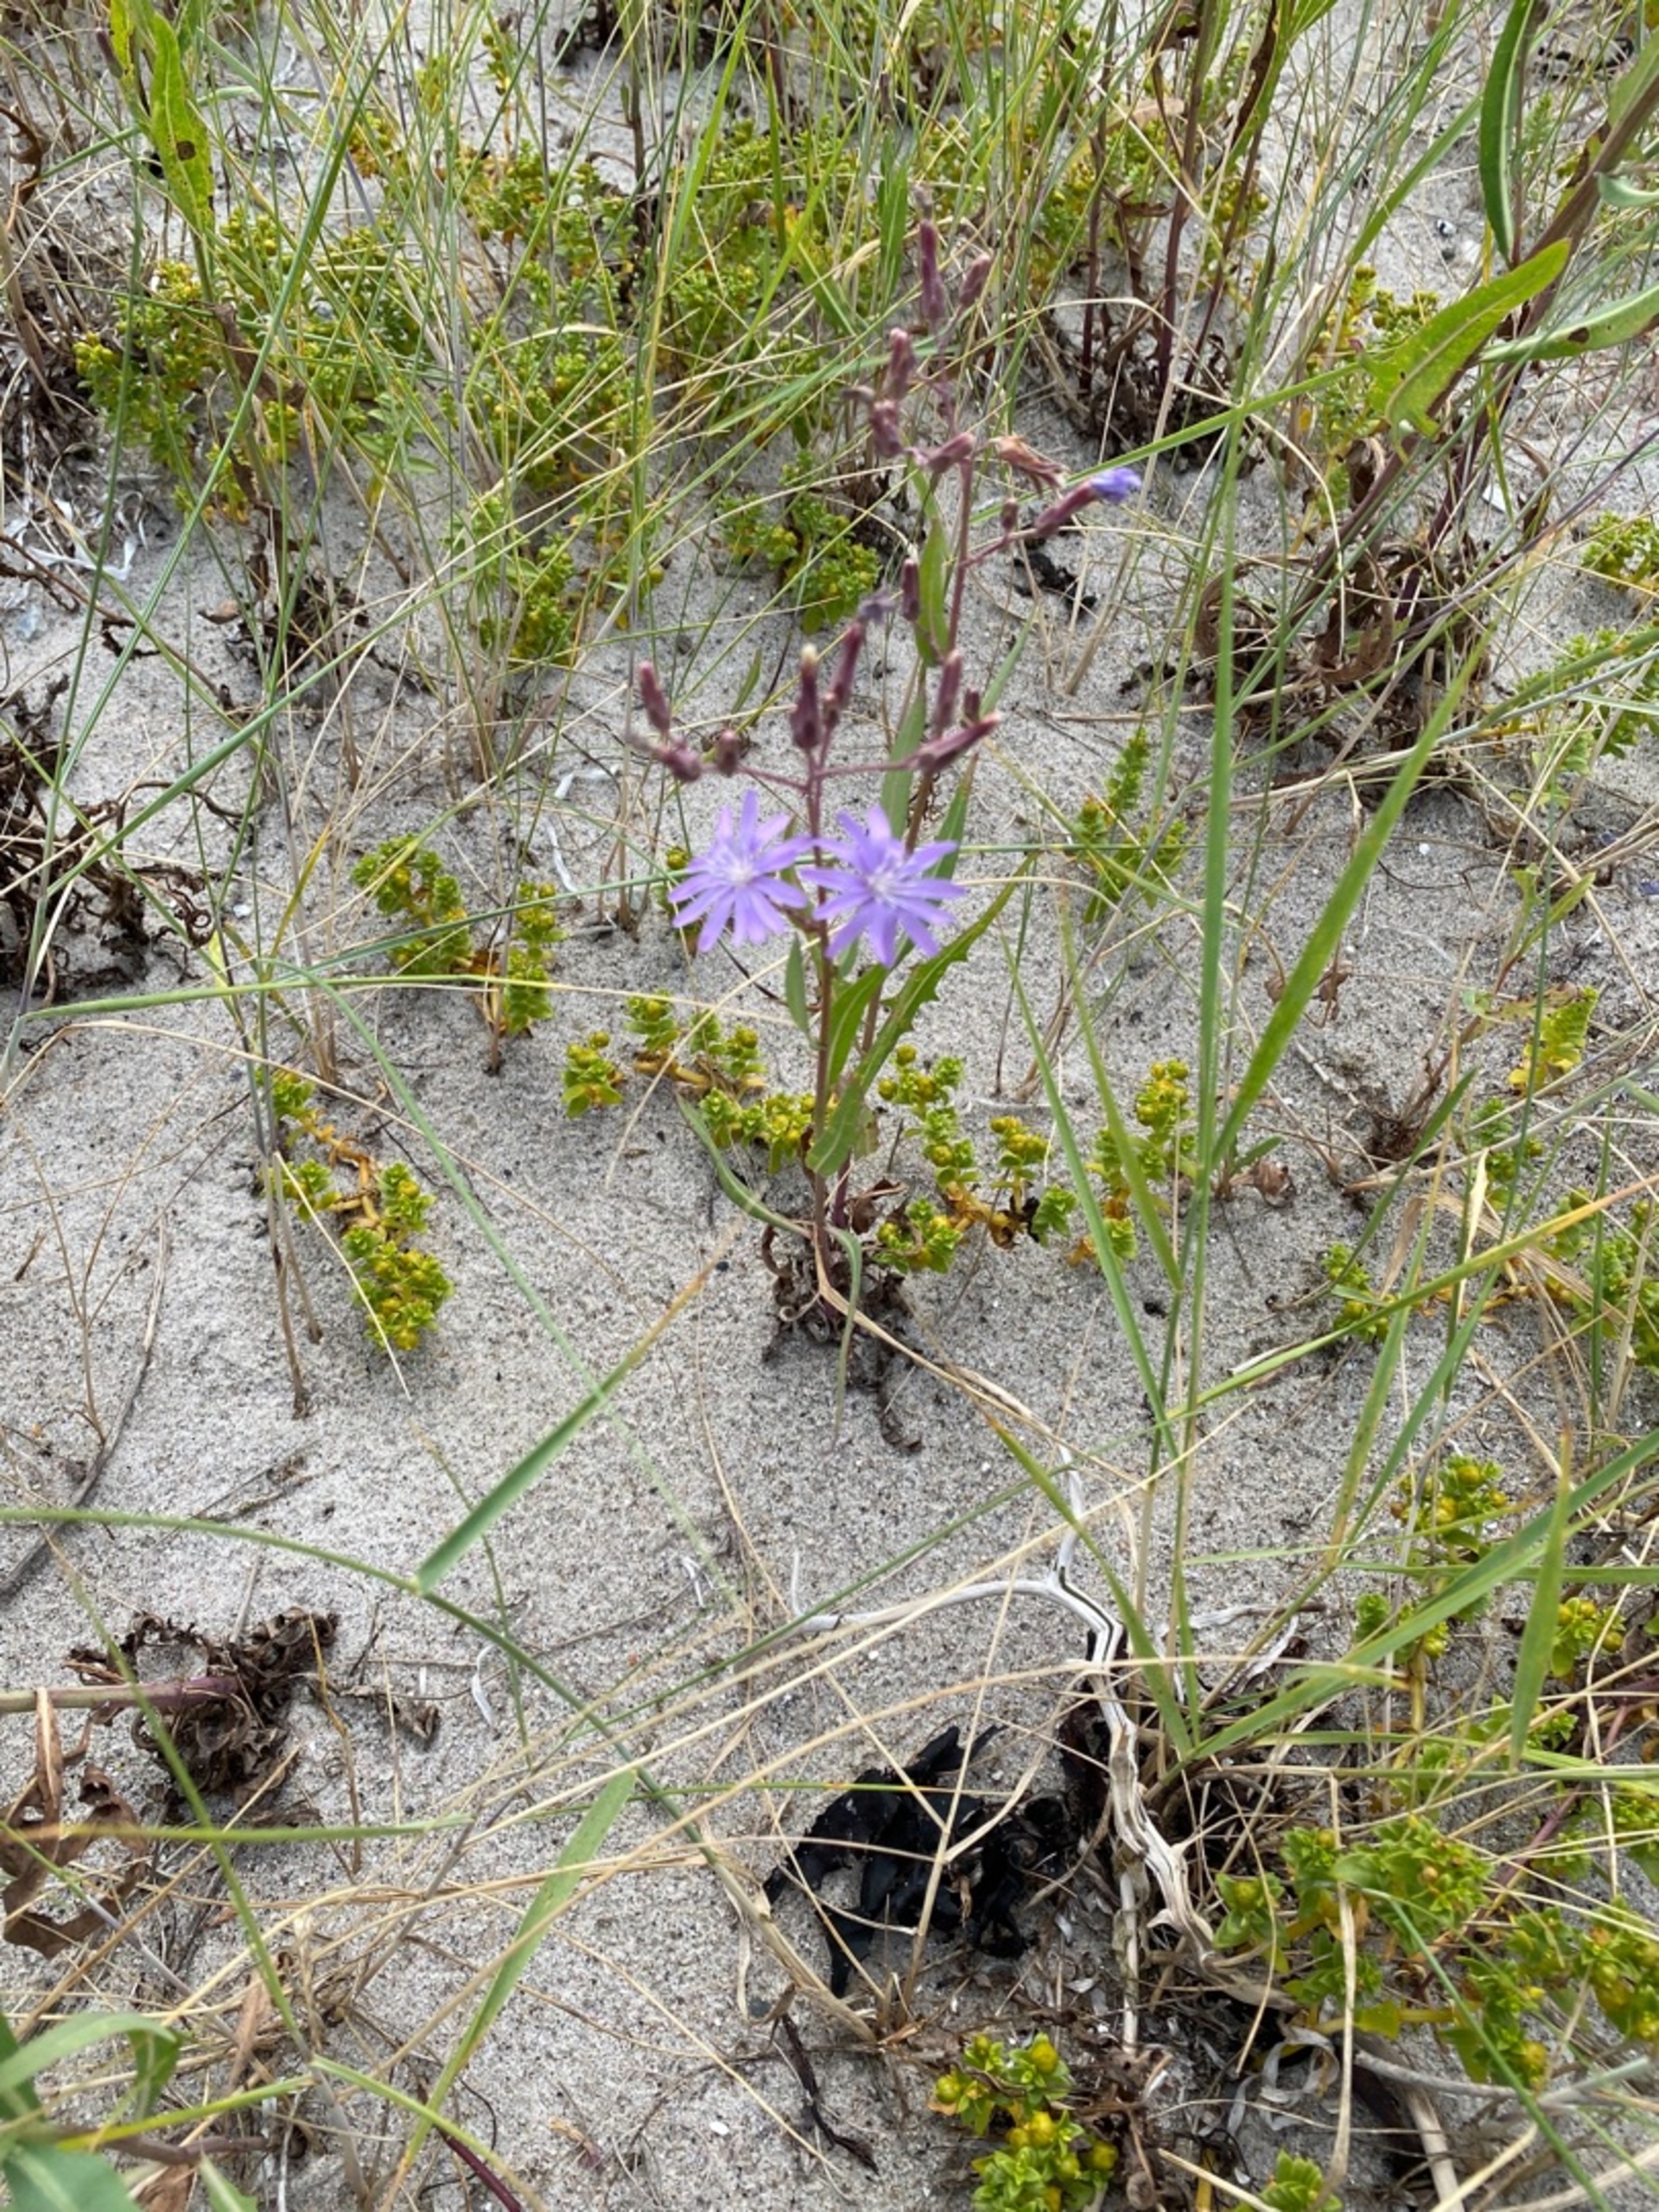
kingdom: Plantae
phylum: Tracheophyta
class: Magnoliopsida
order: Asterales
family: Asteraceae
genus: Lactuca
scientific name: Lactuca tatarica
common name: Strand-salat
